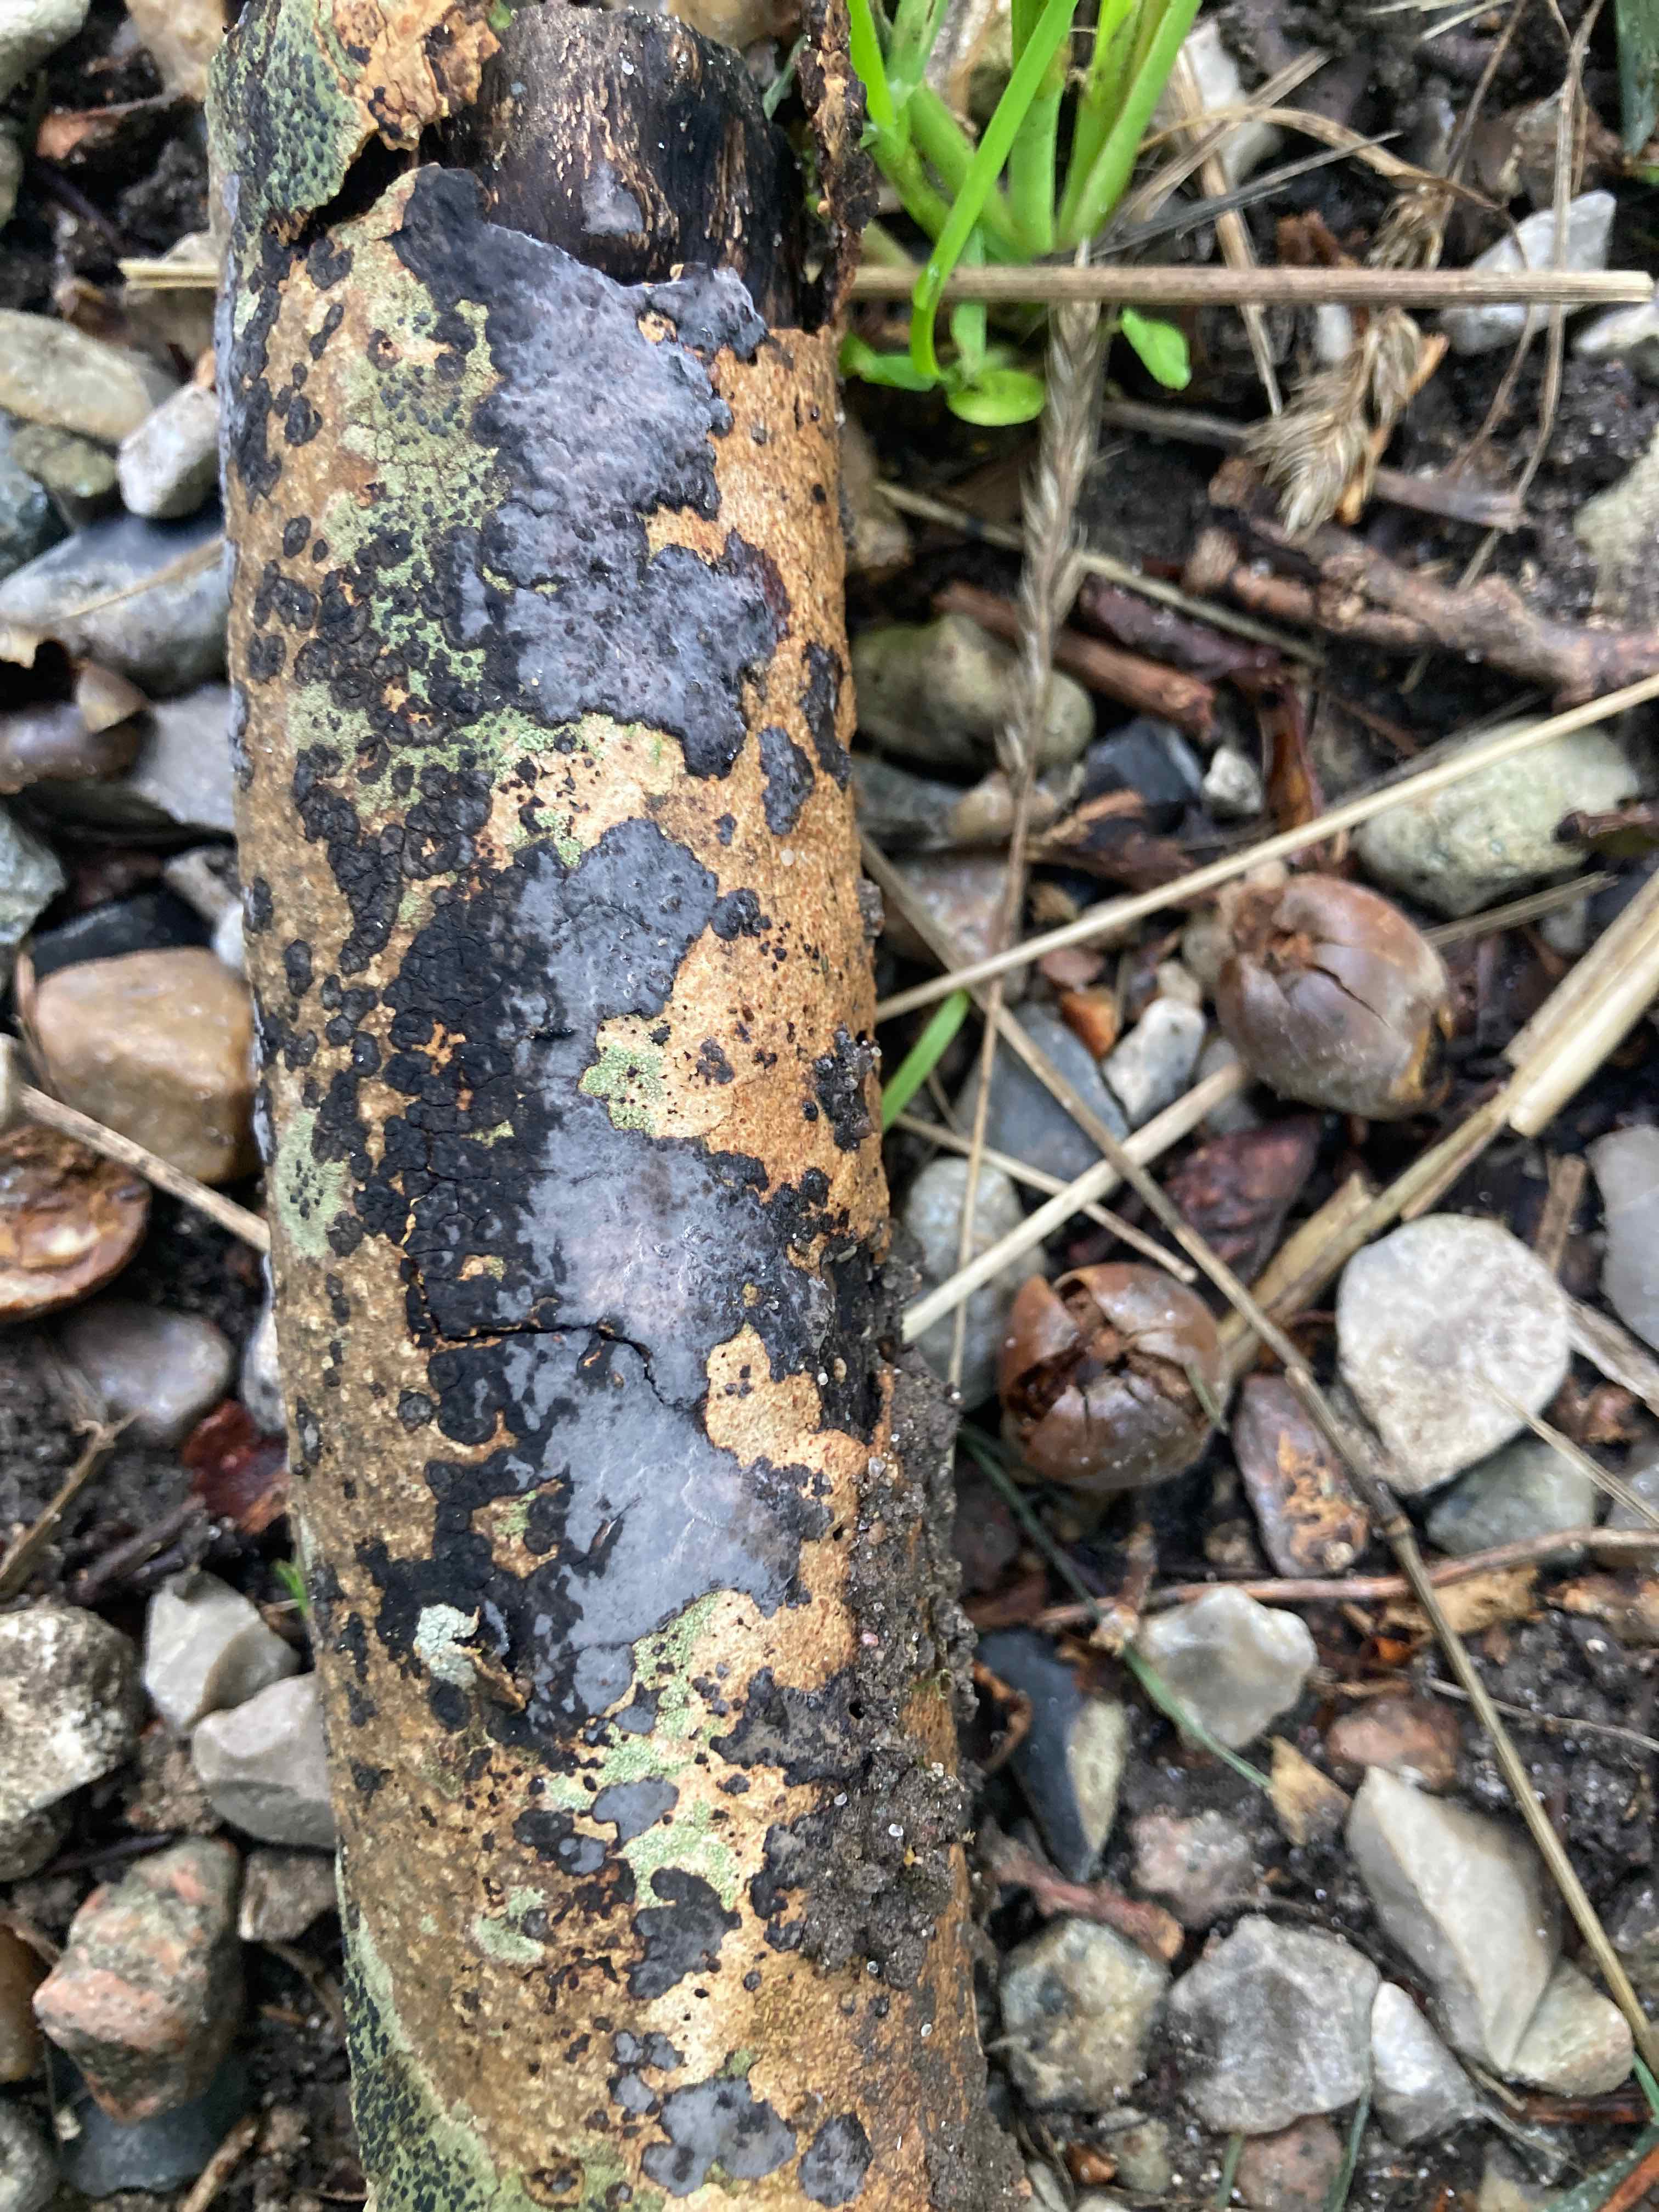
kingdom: Fungi
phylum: Basidiomycota
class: Agaricomycetes
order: Russulales
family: Peniophoraceae
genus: Peniophora
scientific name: Peniophora limitata
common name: mørkrandet voksskind
